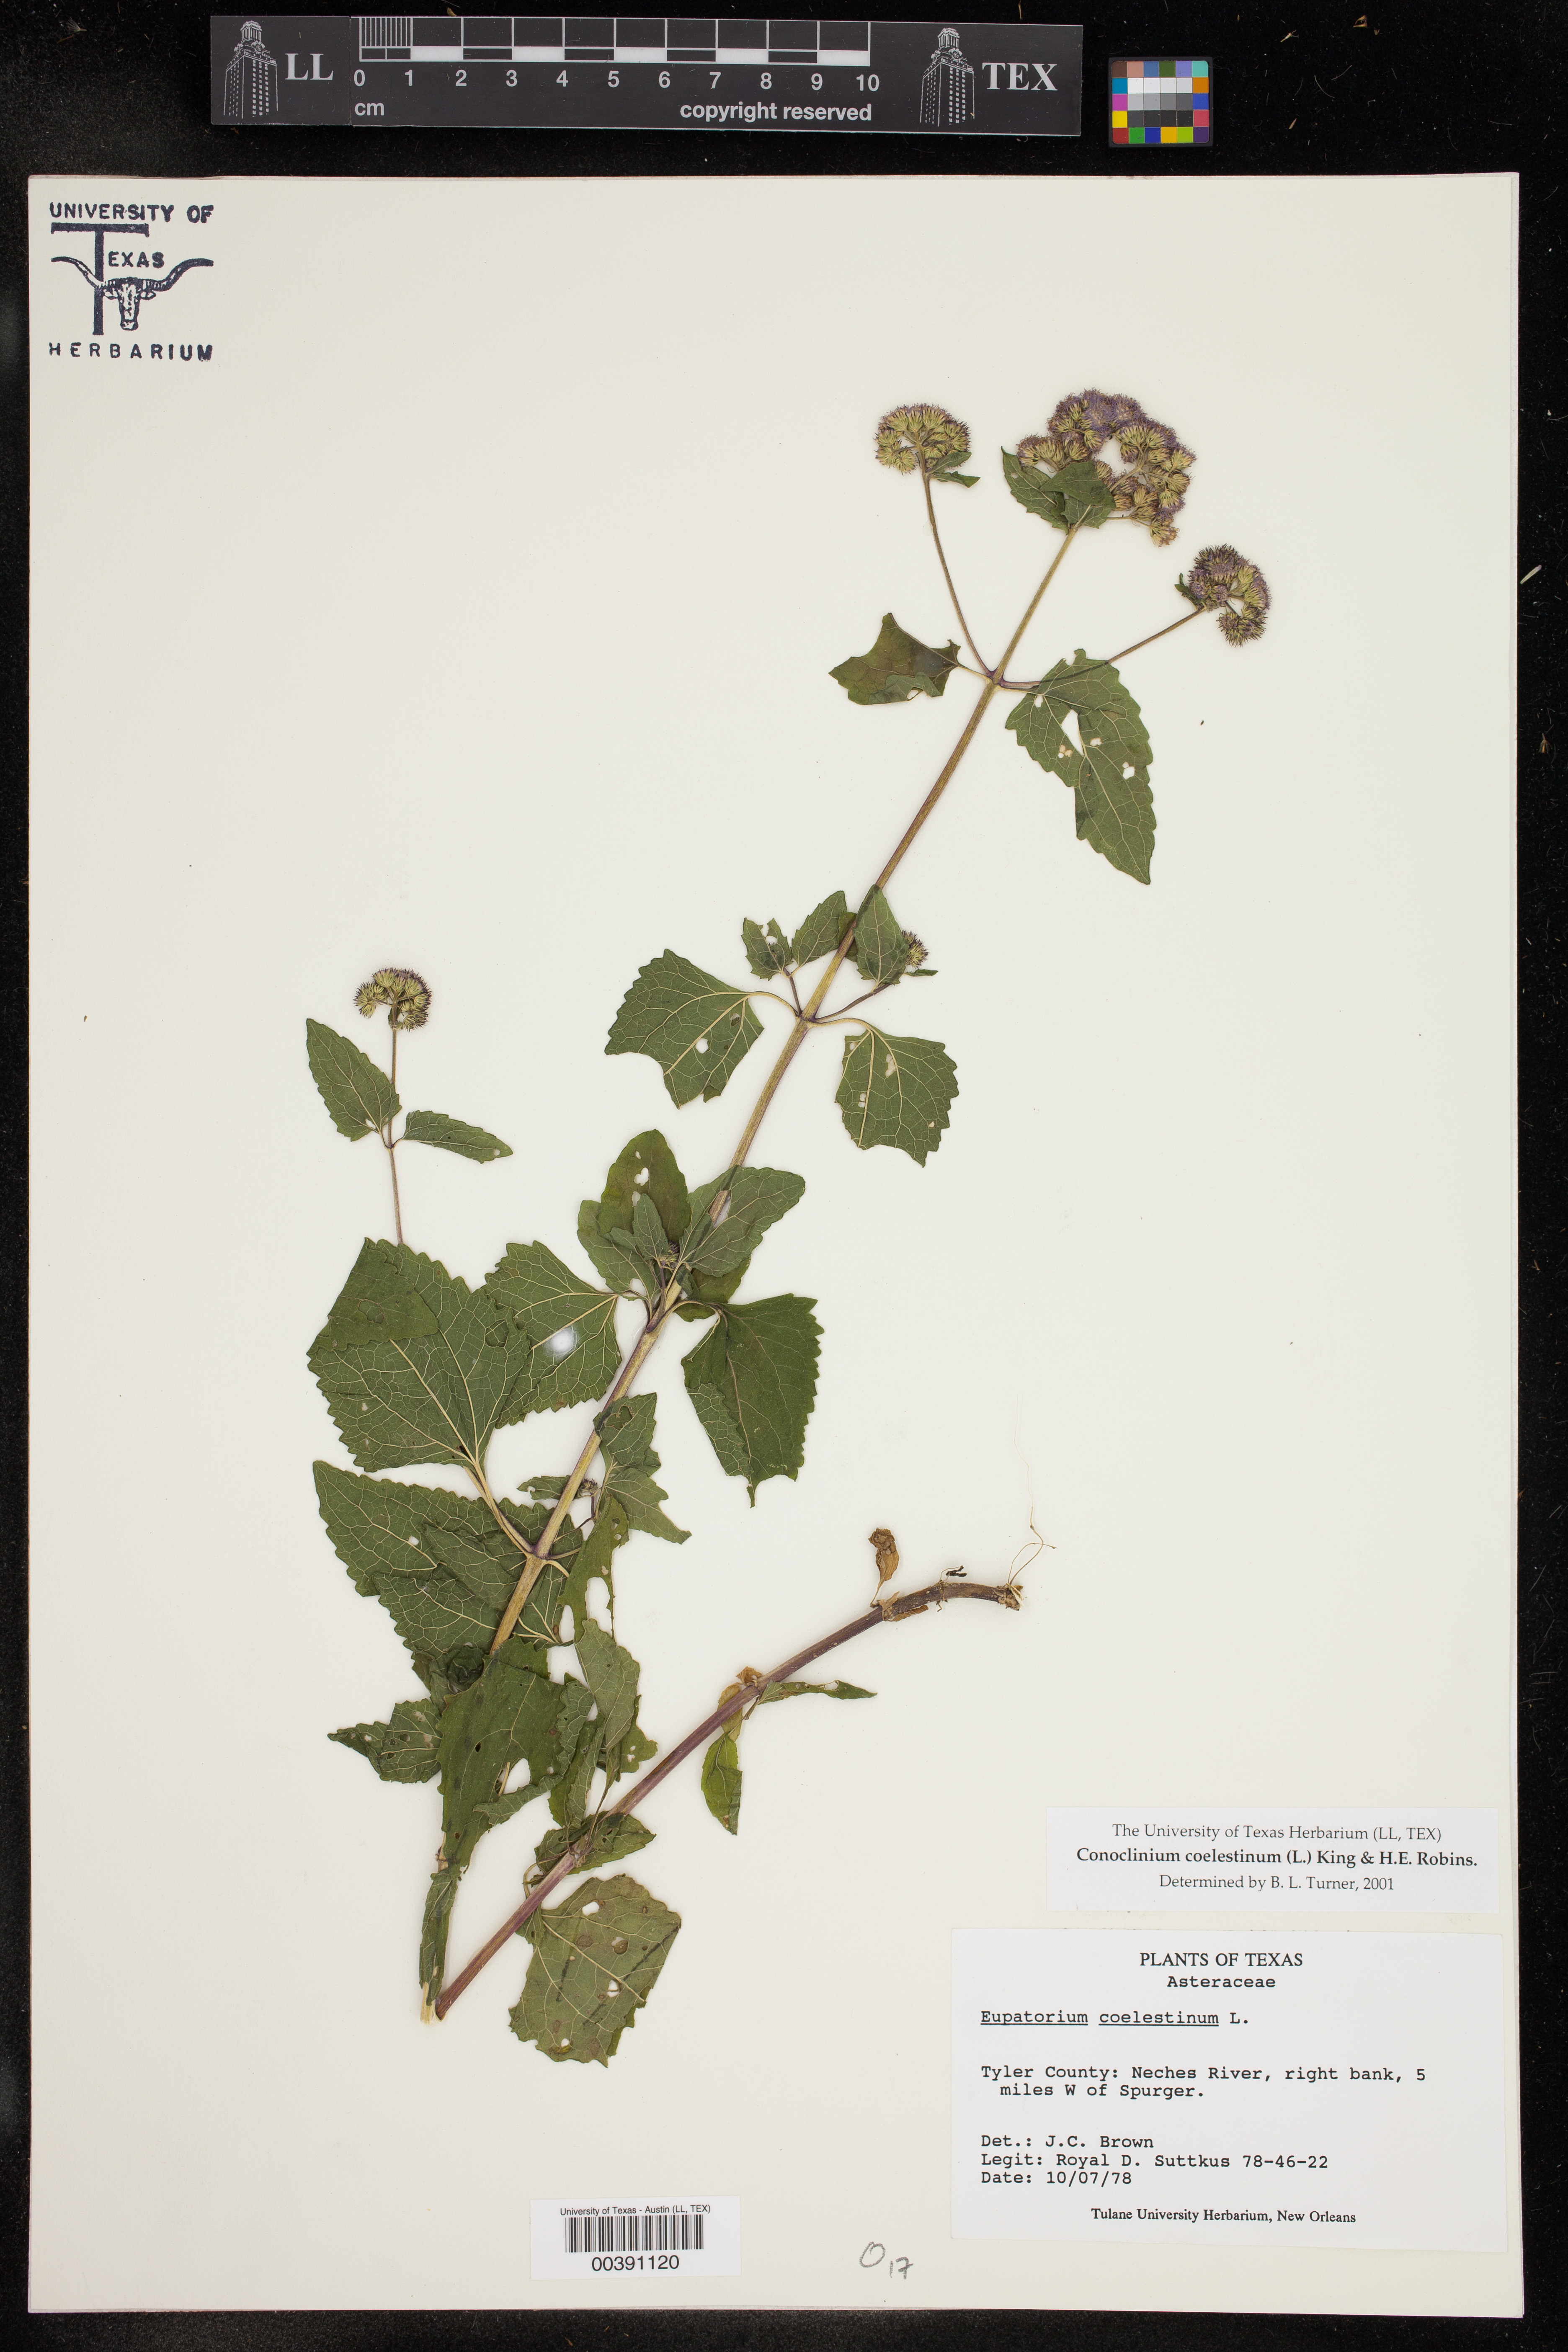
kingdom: Plantae
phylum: Tracheophyta
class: Magnoliopsida
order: Asterales
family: Asteraceae
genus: Conoclinium
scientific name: Conoclinium coelestinum
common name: Blue mistflower
